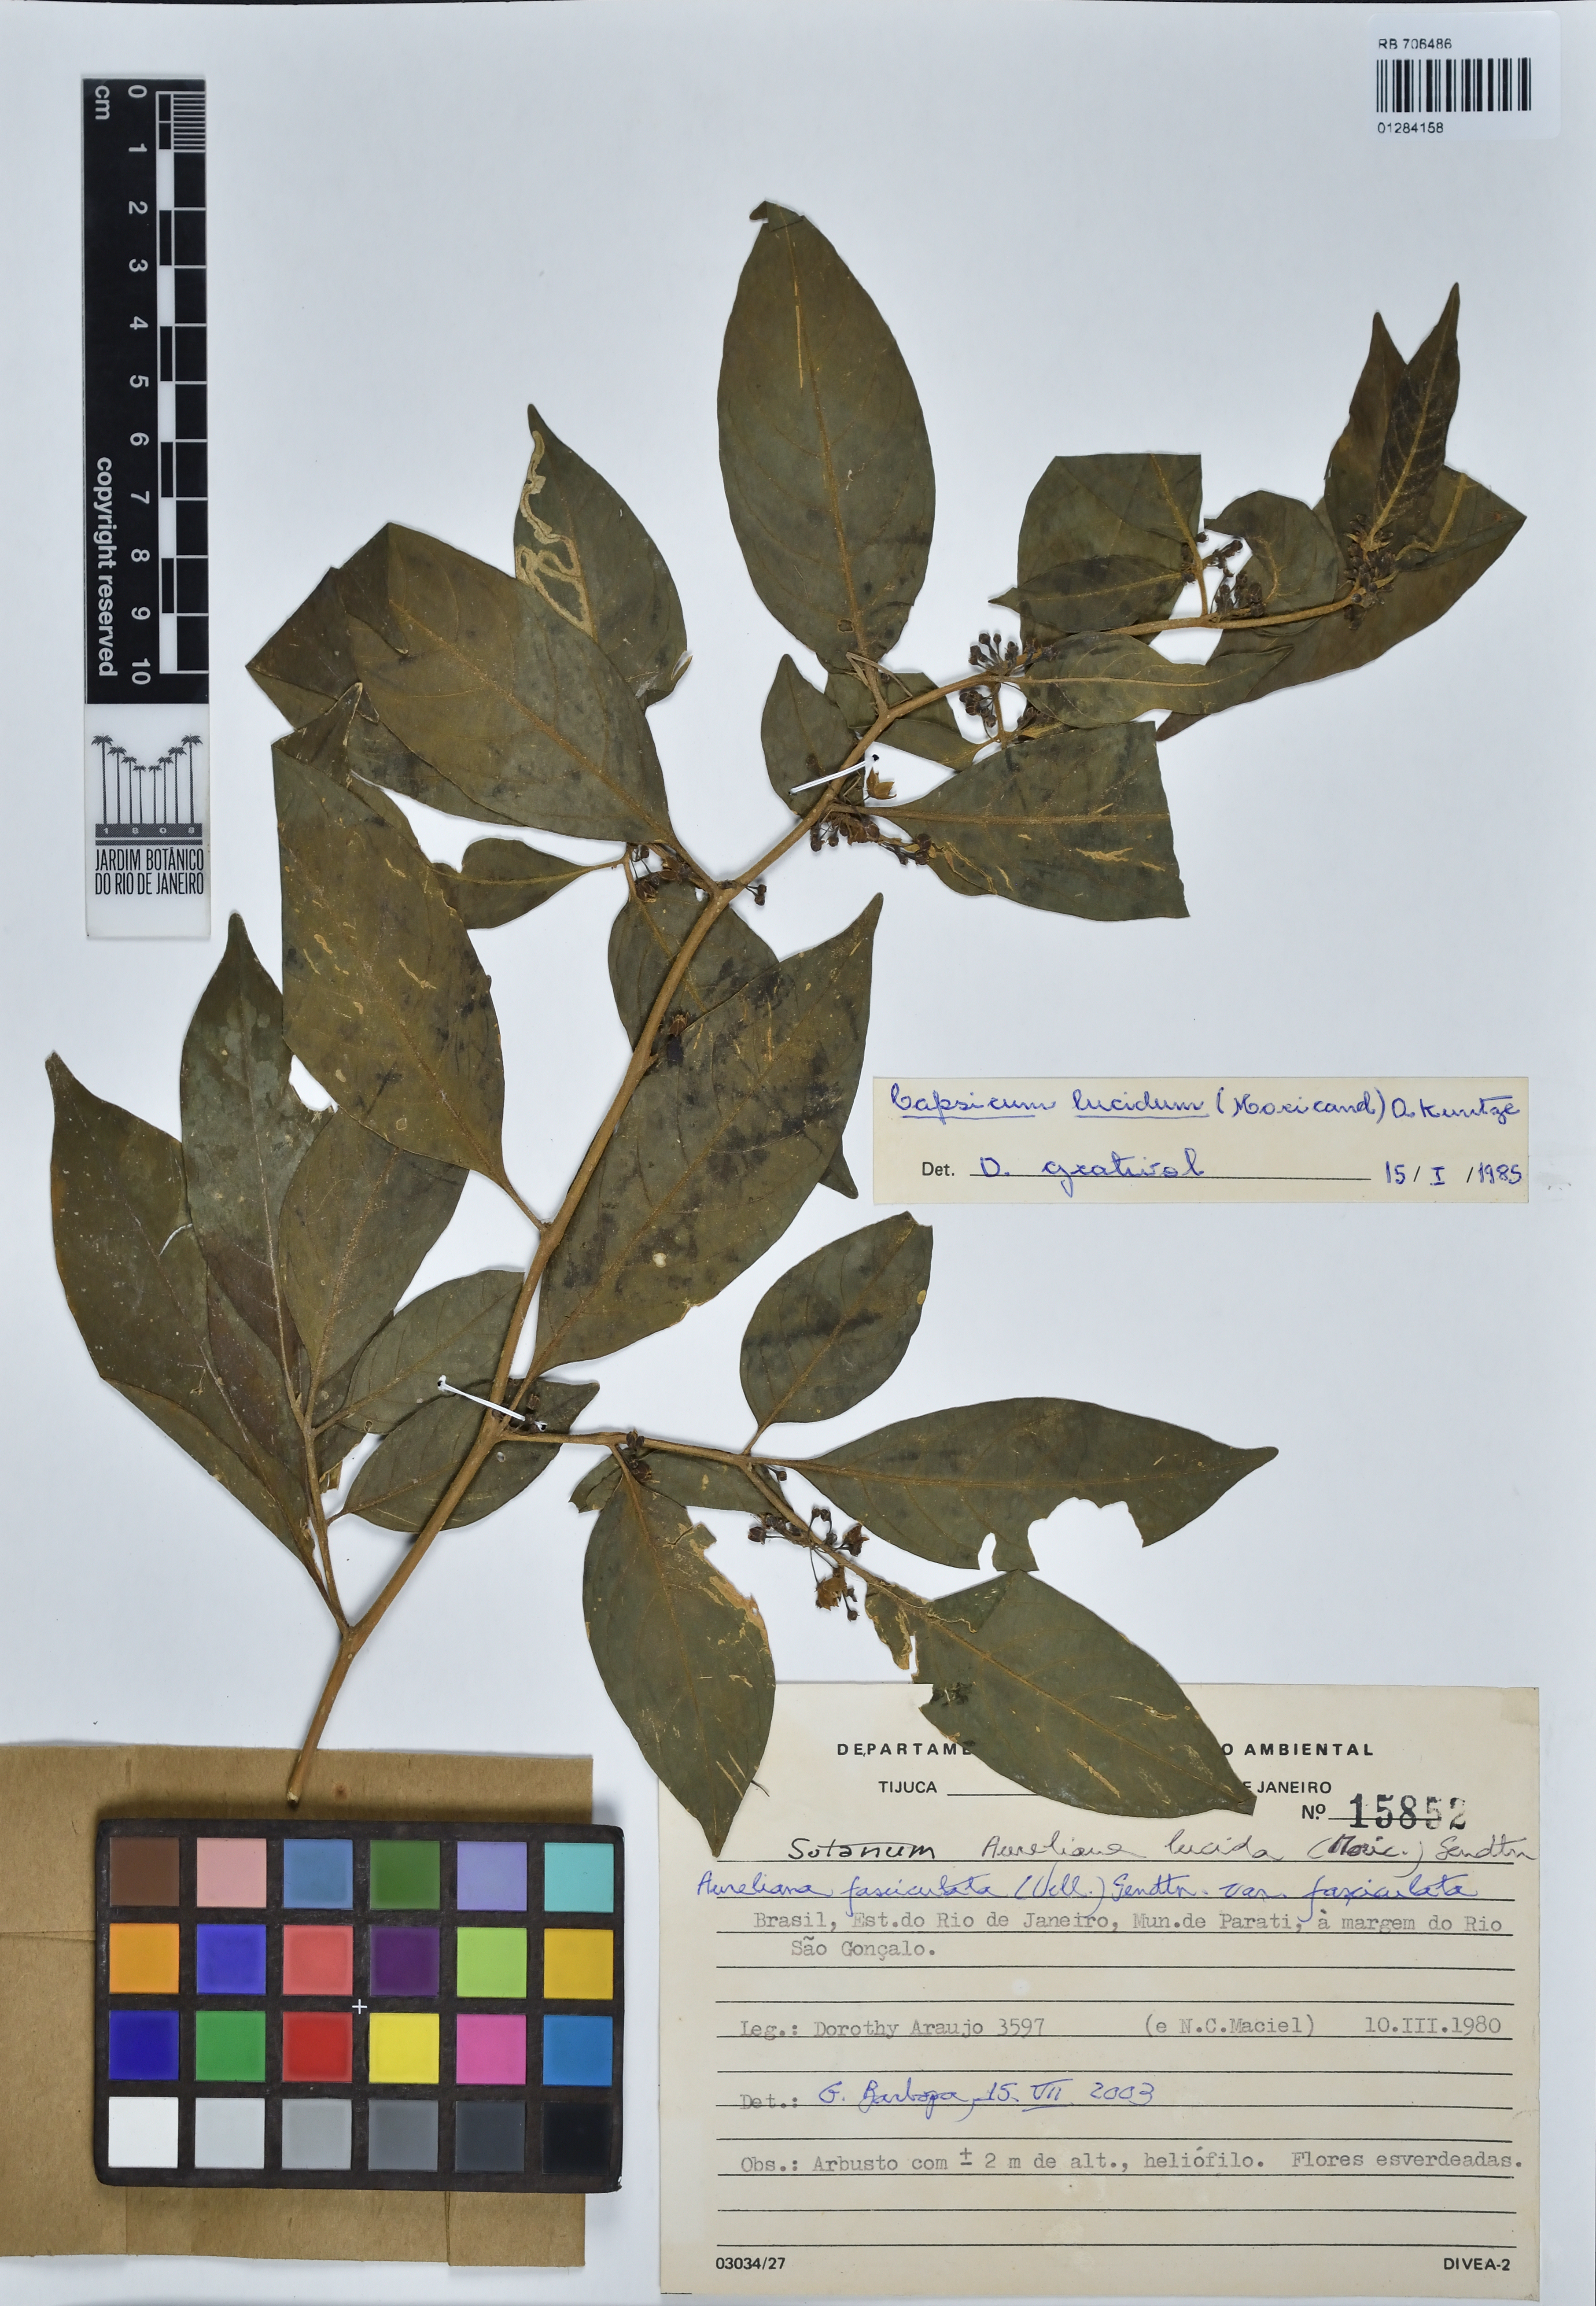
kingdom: Plantae
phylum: Tracheophyta
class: Magnoliopsida
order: Solanales
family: Solanaceae
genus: Athenaea
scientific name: Athenaea fasciculata
